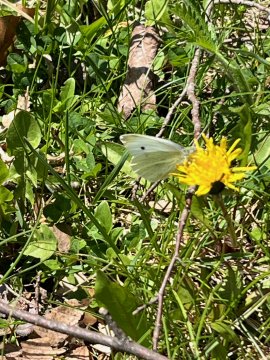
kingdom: Animalia
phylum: Arthropoda
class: Insecta
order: Lepidoptera
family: Pieridae
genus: Pieris
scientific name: Pieris rapae
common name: Cabbage White
